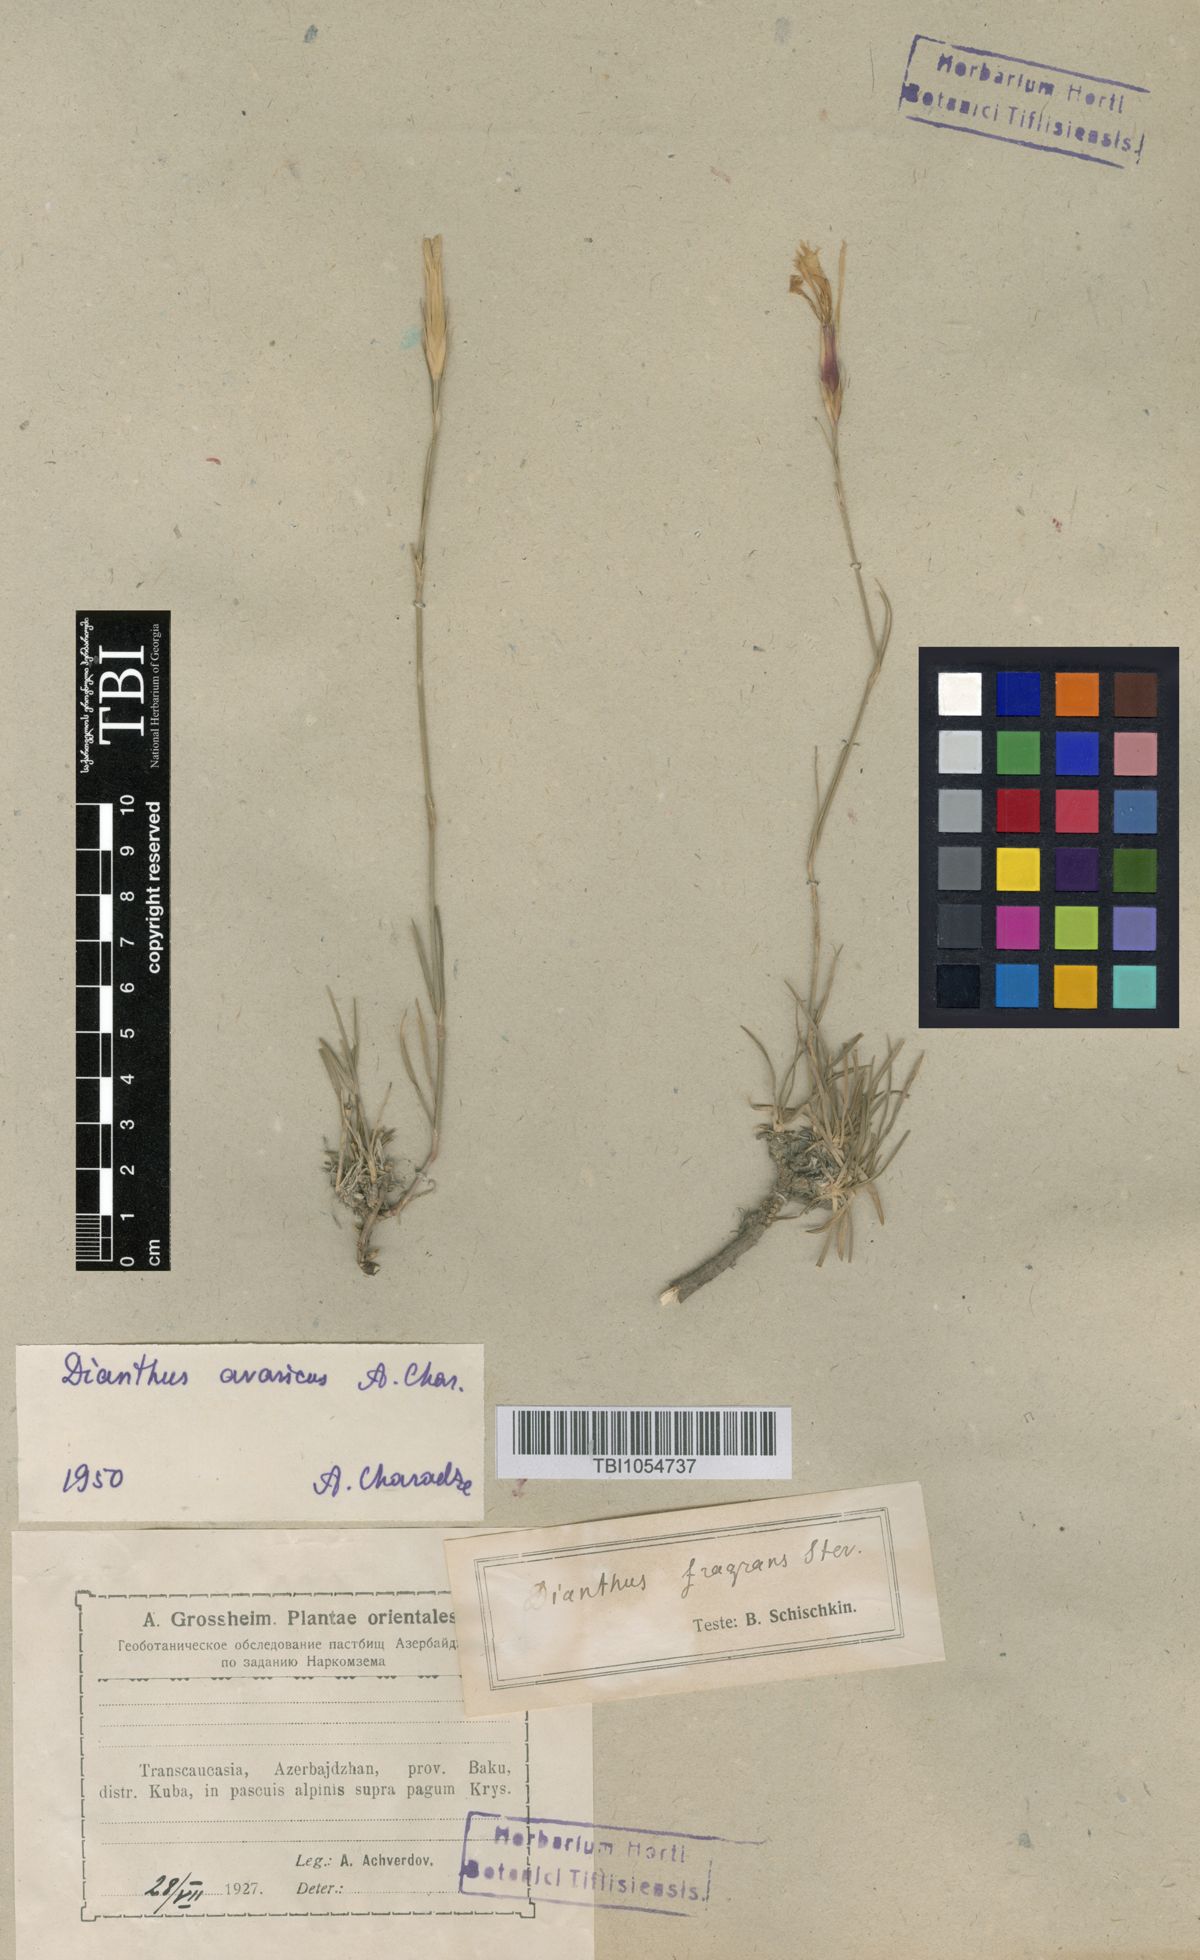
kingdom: Plantae
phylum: Tracheophyta
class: Magnoliopsida
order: Caryophyllales
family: Caryophyllaceae
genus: Dianthus
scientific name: Dianthus
